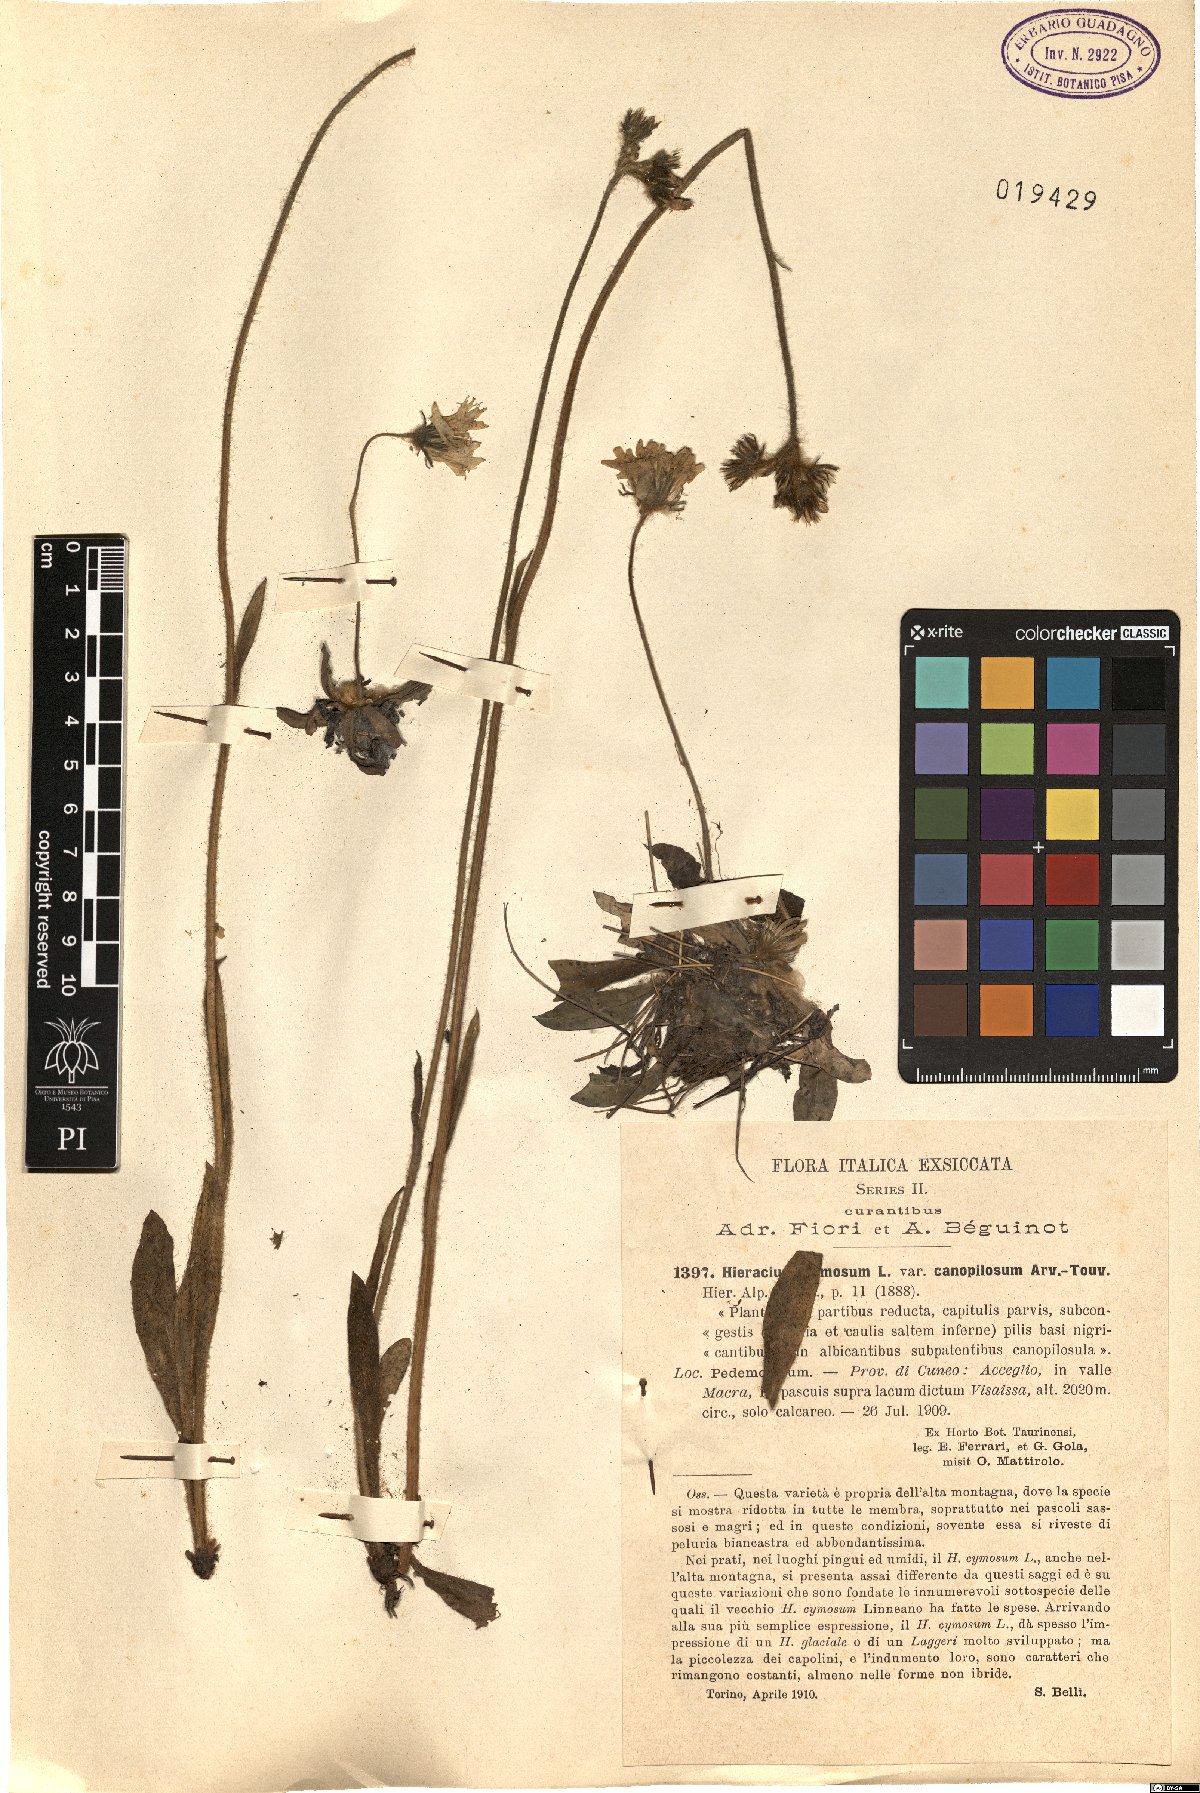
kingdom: Plantae
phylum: Tracheophyta
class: Magnoliopsida
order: Asterales
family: Asteraceae
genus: Pilosella
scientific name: Pilosella cymosa
